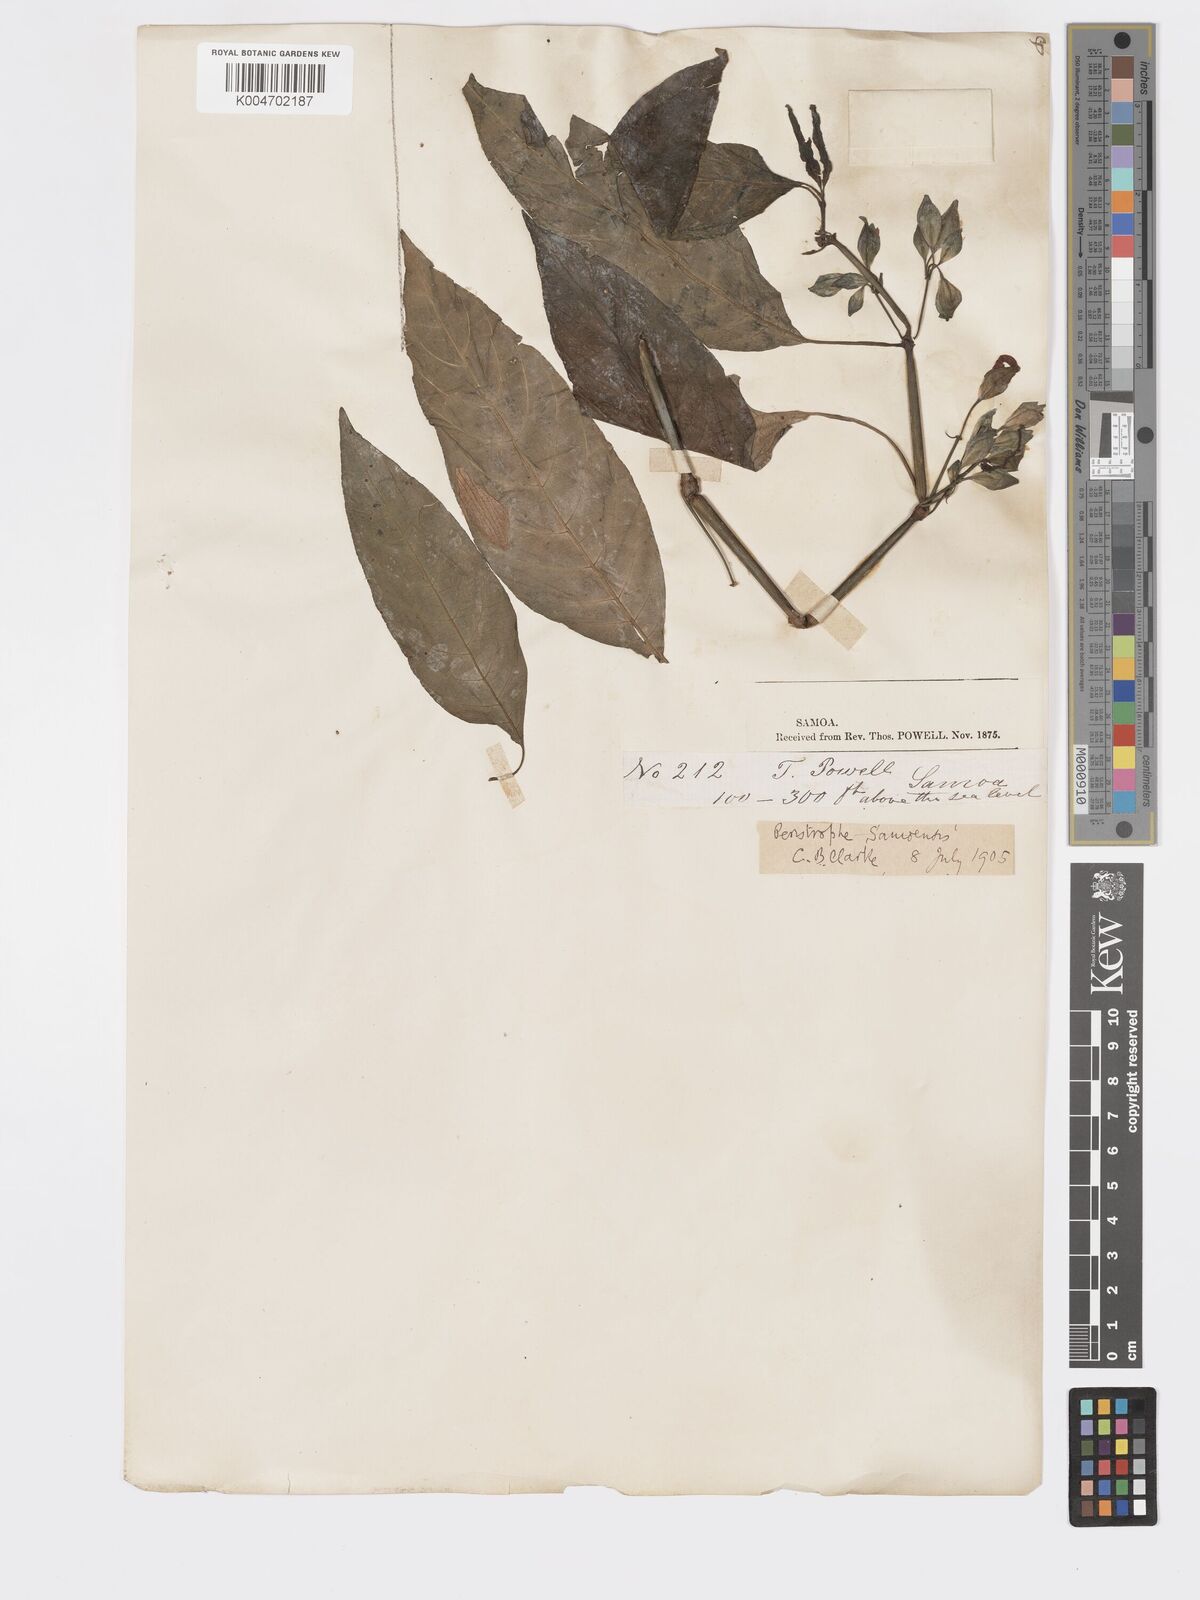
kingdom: Plantae
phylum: Tracheophyta
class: Magnoliopsida
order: Lamiales
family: Acanthaceae
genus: Dicliptera
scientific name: Dicliptera samoensis
